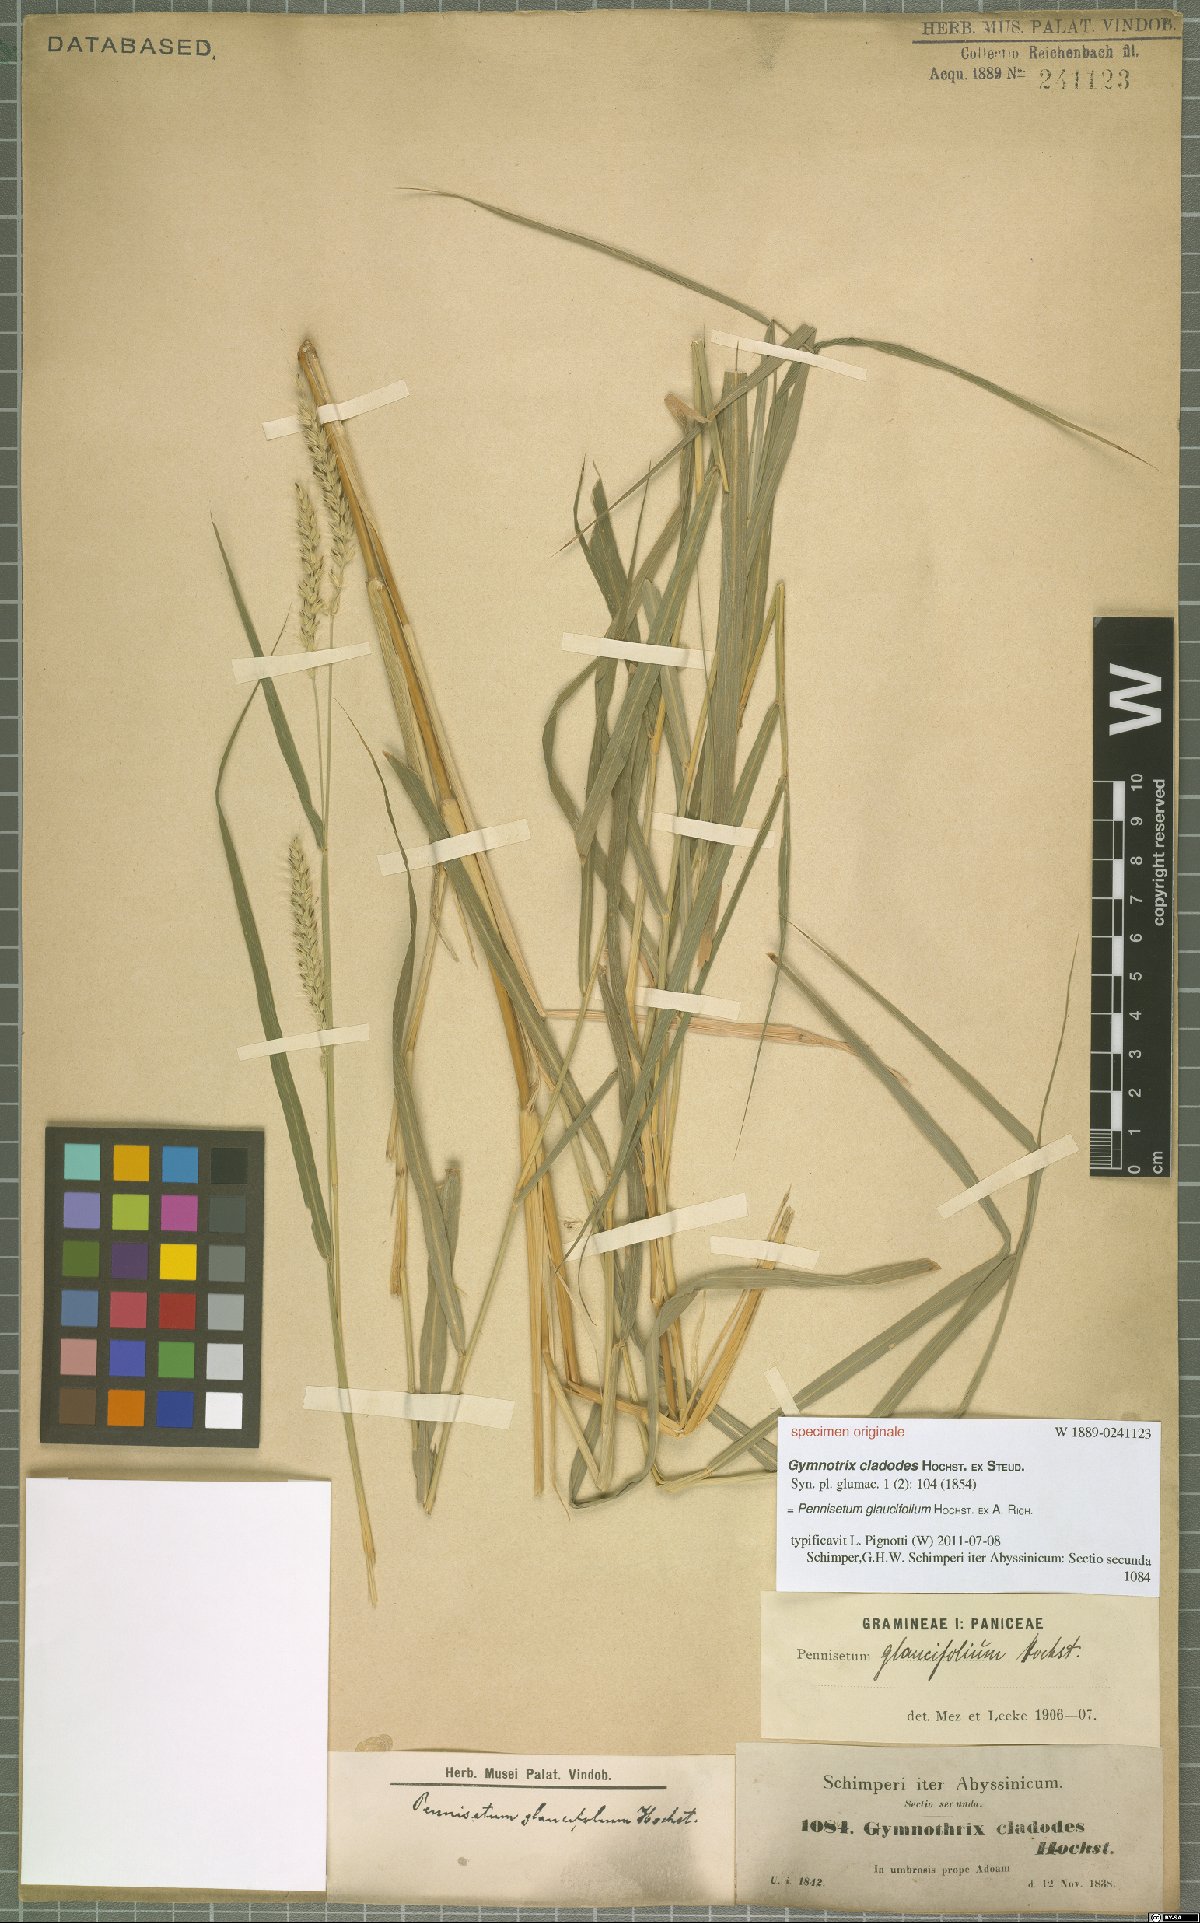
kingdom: Plantae
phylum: Tracheophyta
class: Liliopsida
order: Poales
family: Poaceae
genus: Cenchrus
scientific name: Cenchrus glaucifolius
